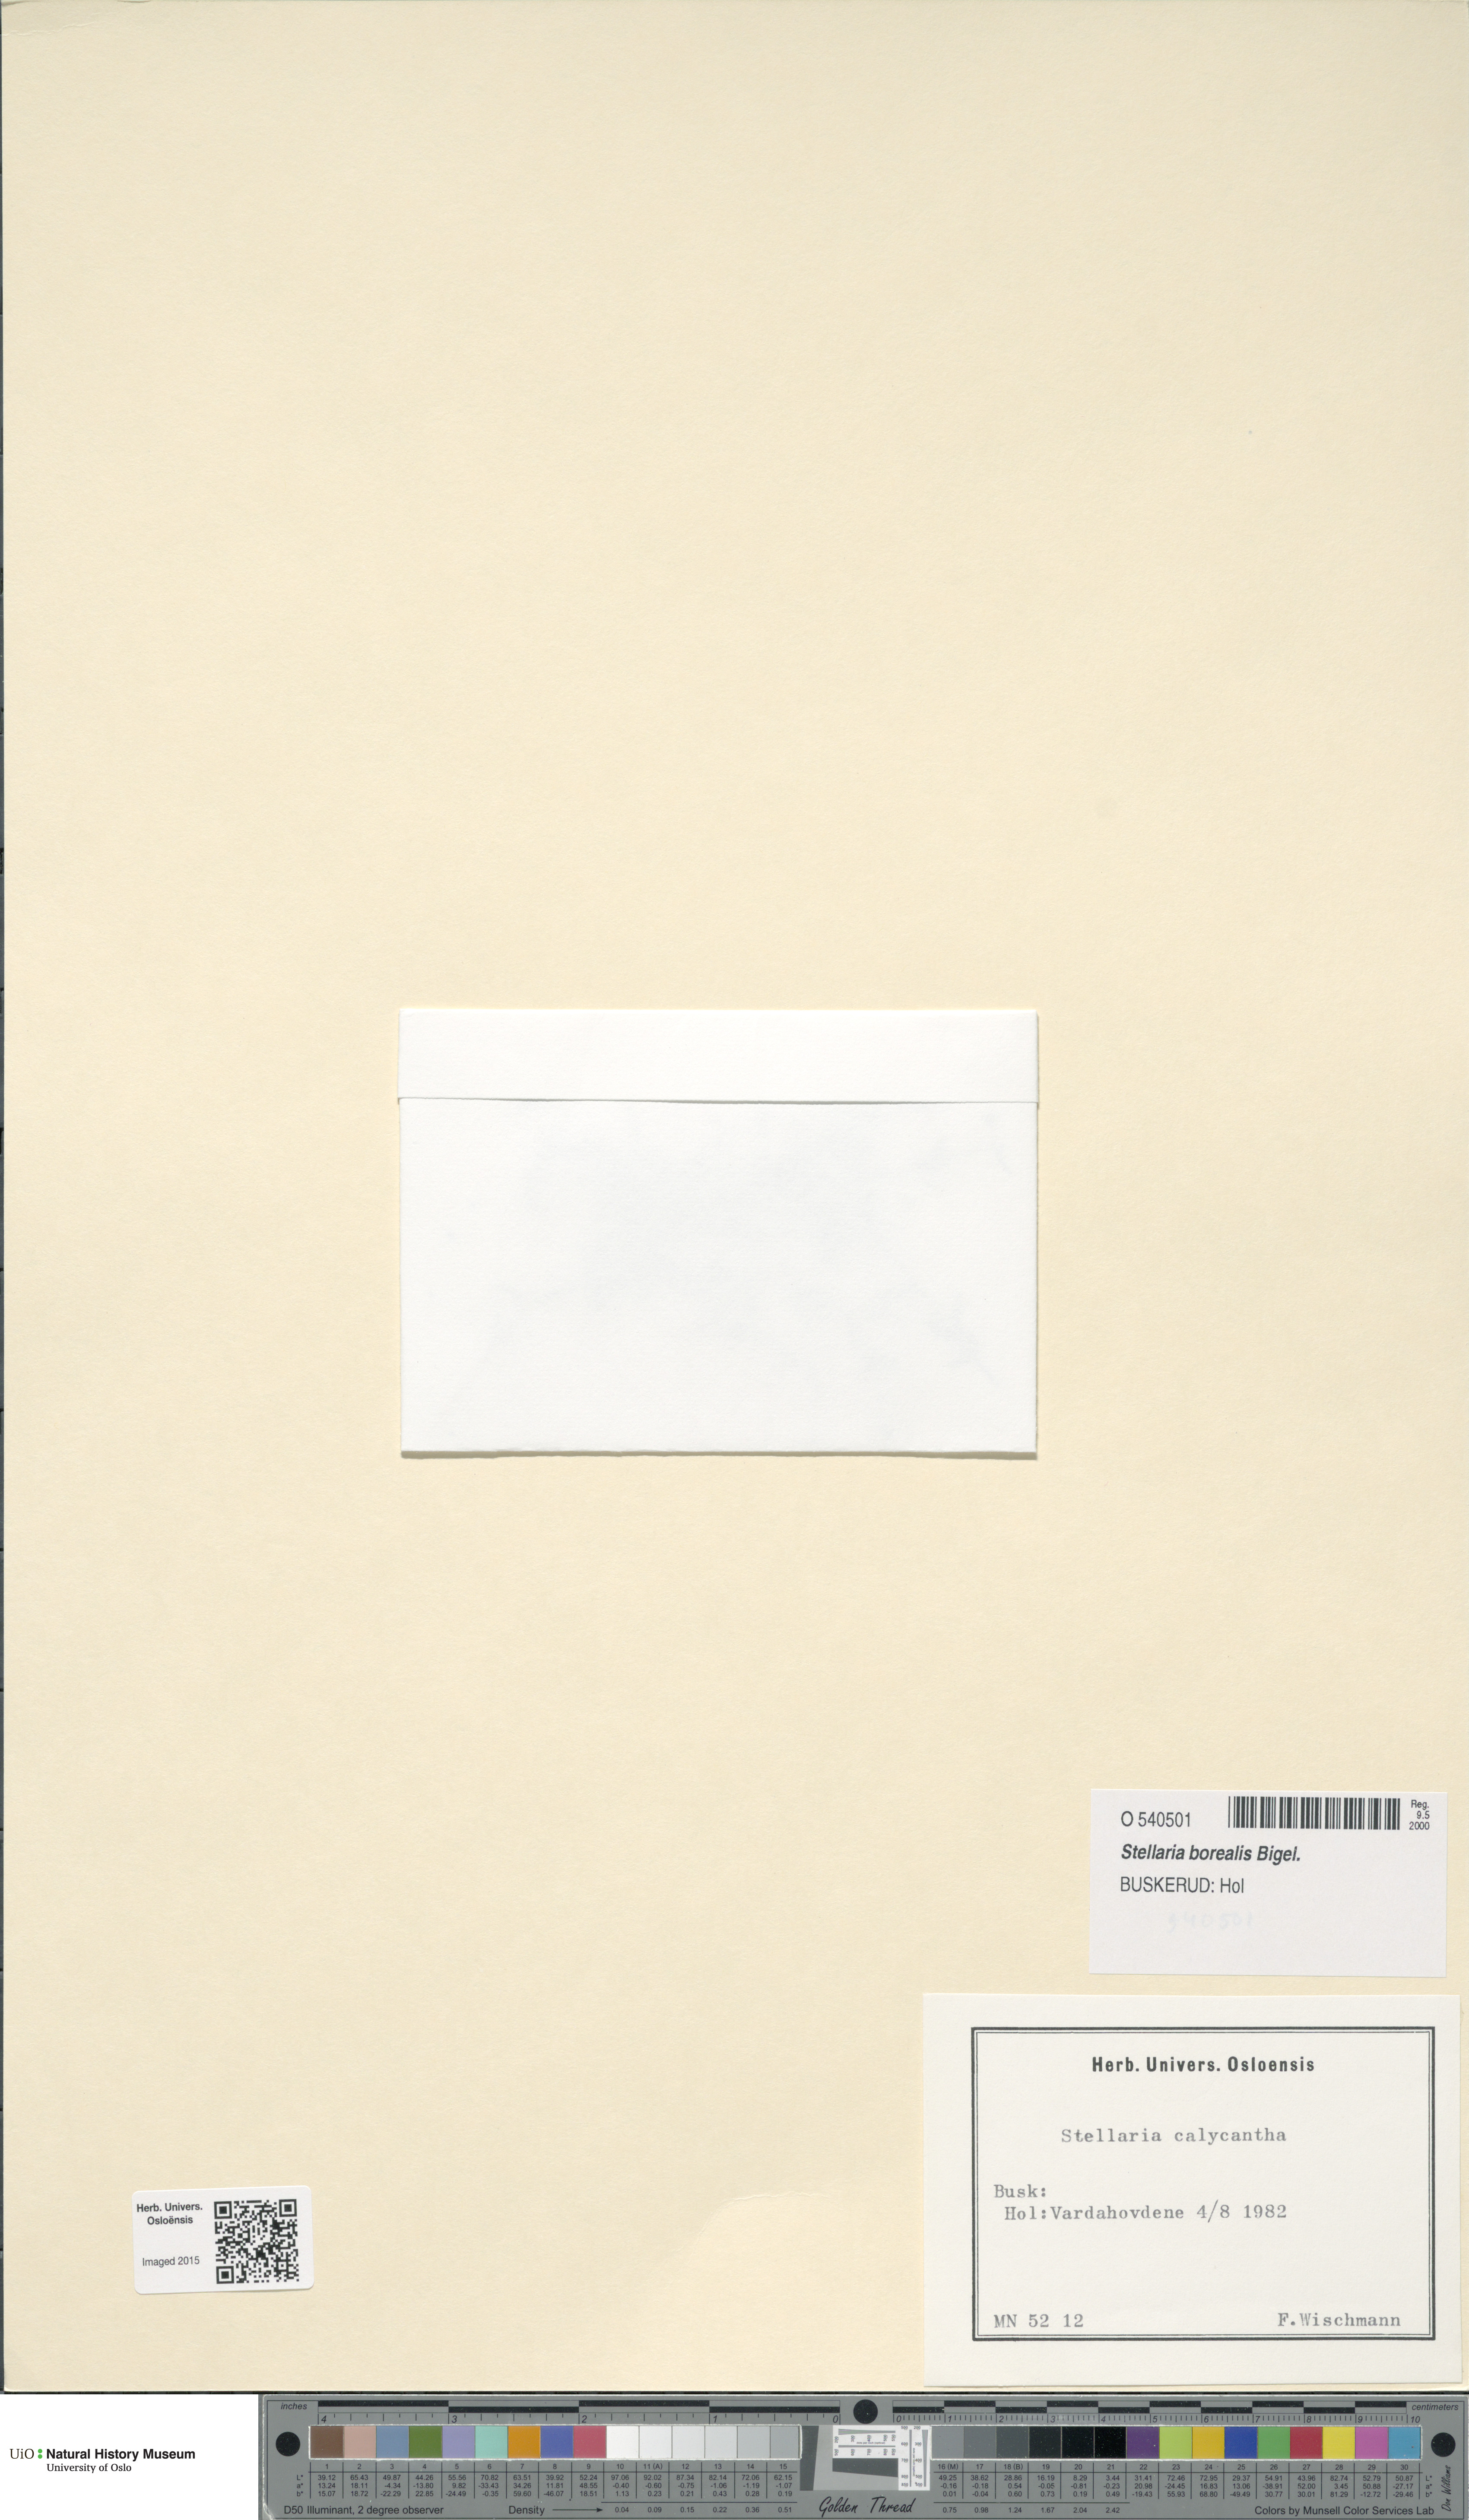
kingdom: Plantae
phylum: Tracheophyta
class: Magnoliopsida
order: Caryophyllales
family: Caryophyllaceae
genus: Stellaria
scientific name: Stellaria borealis
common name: Boreal starwort
